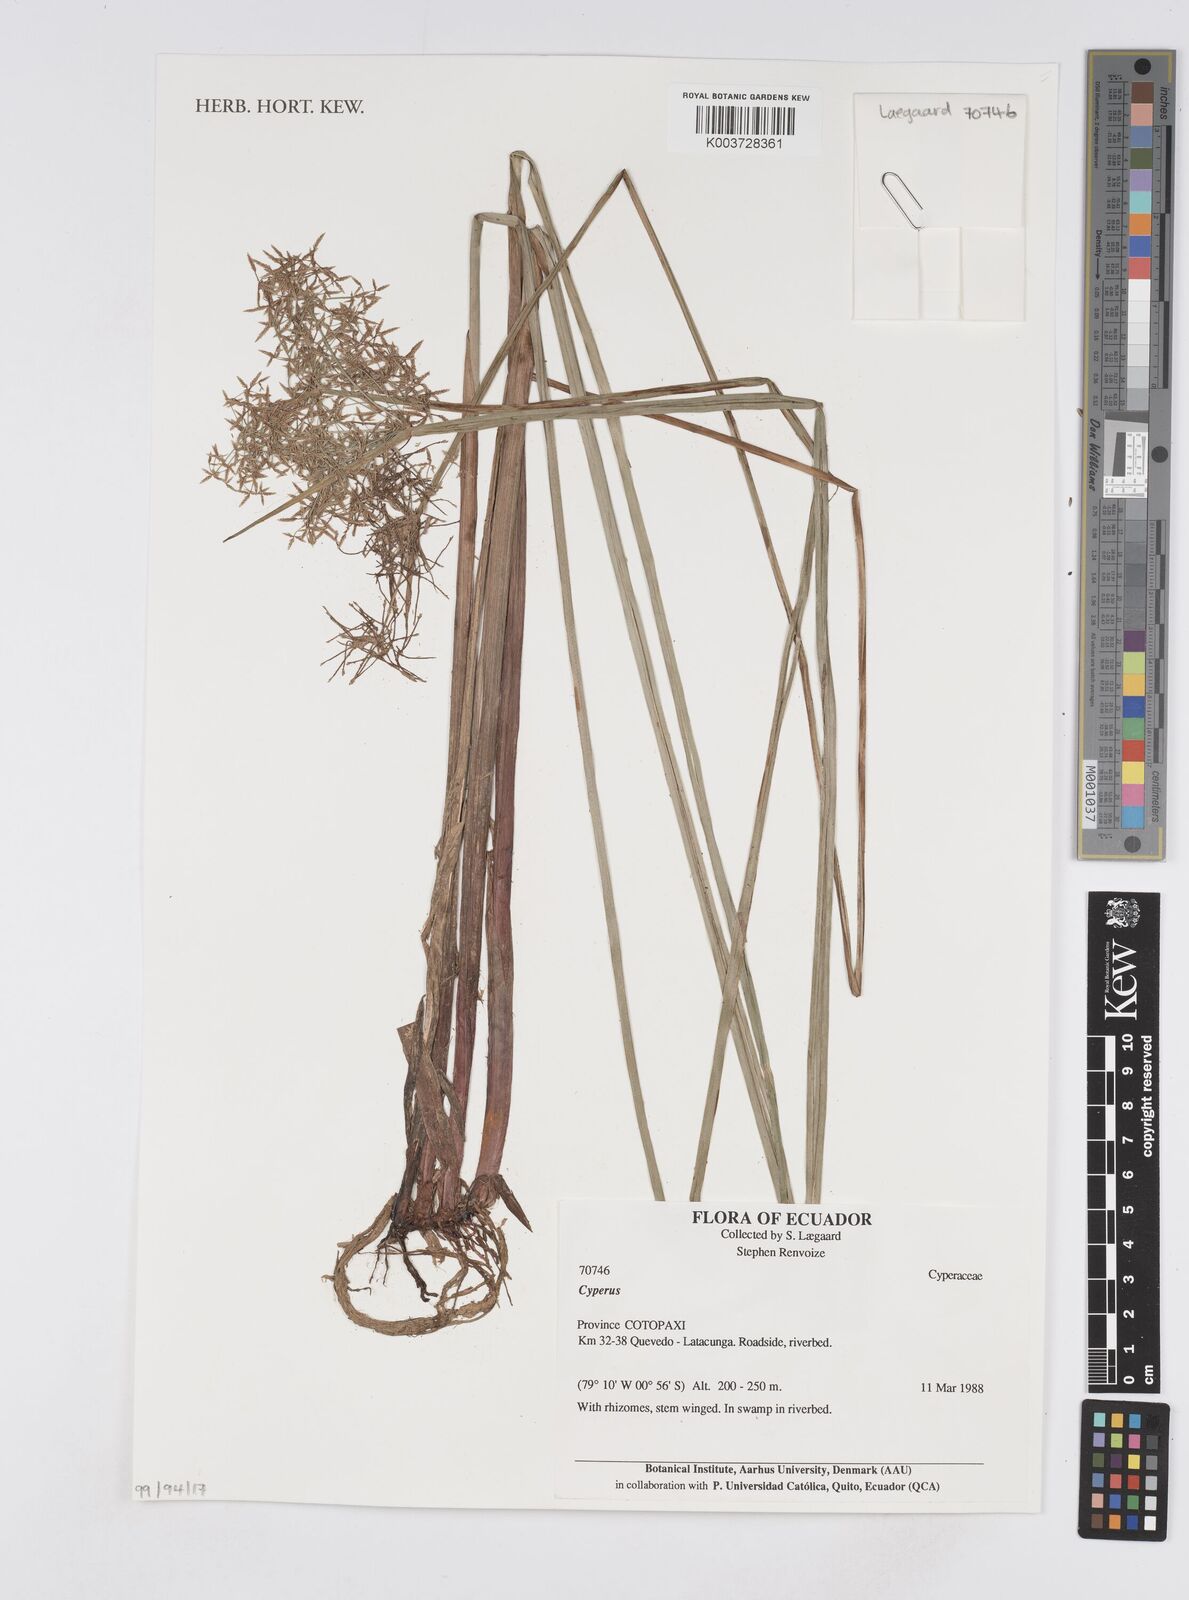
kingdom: Plantae
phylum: Tracheophyta
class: Liliopsida
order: Poales
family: Cyperaceae
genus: Cyperus
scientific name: Cyperus
